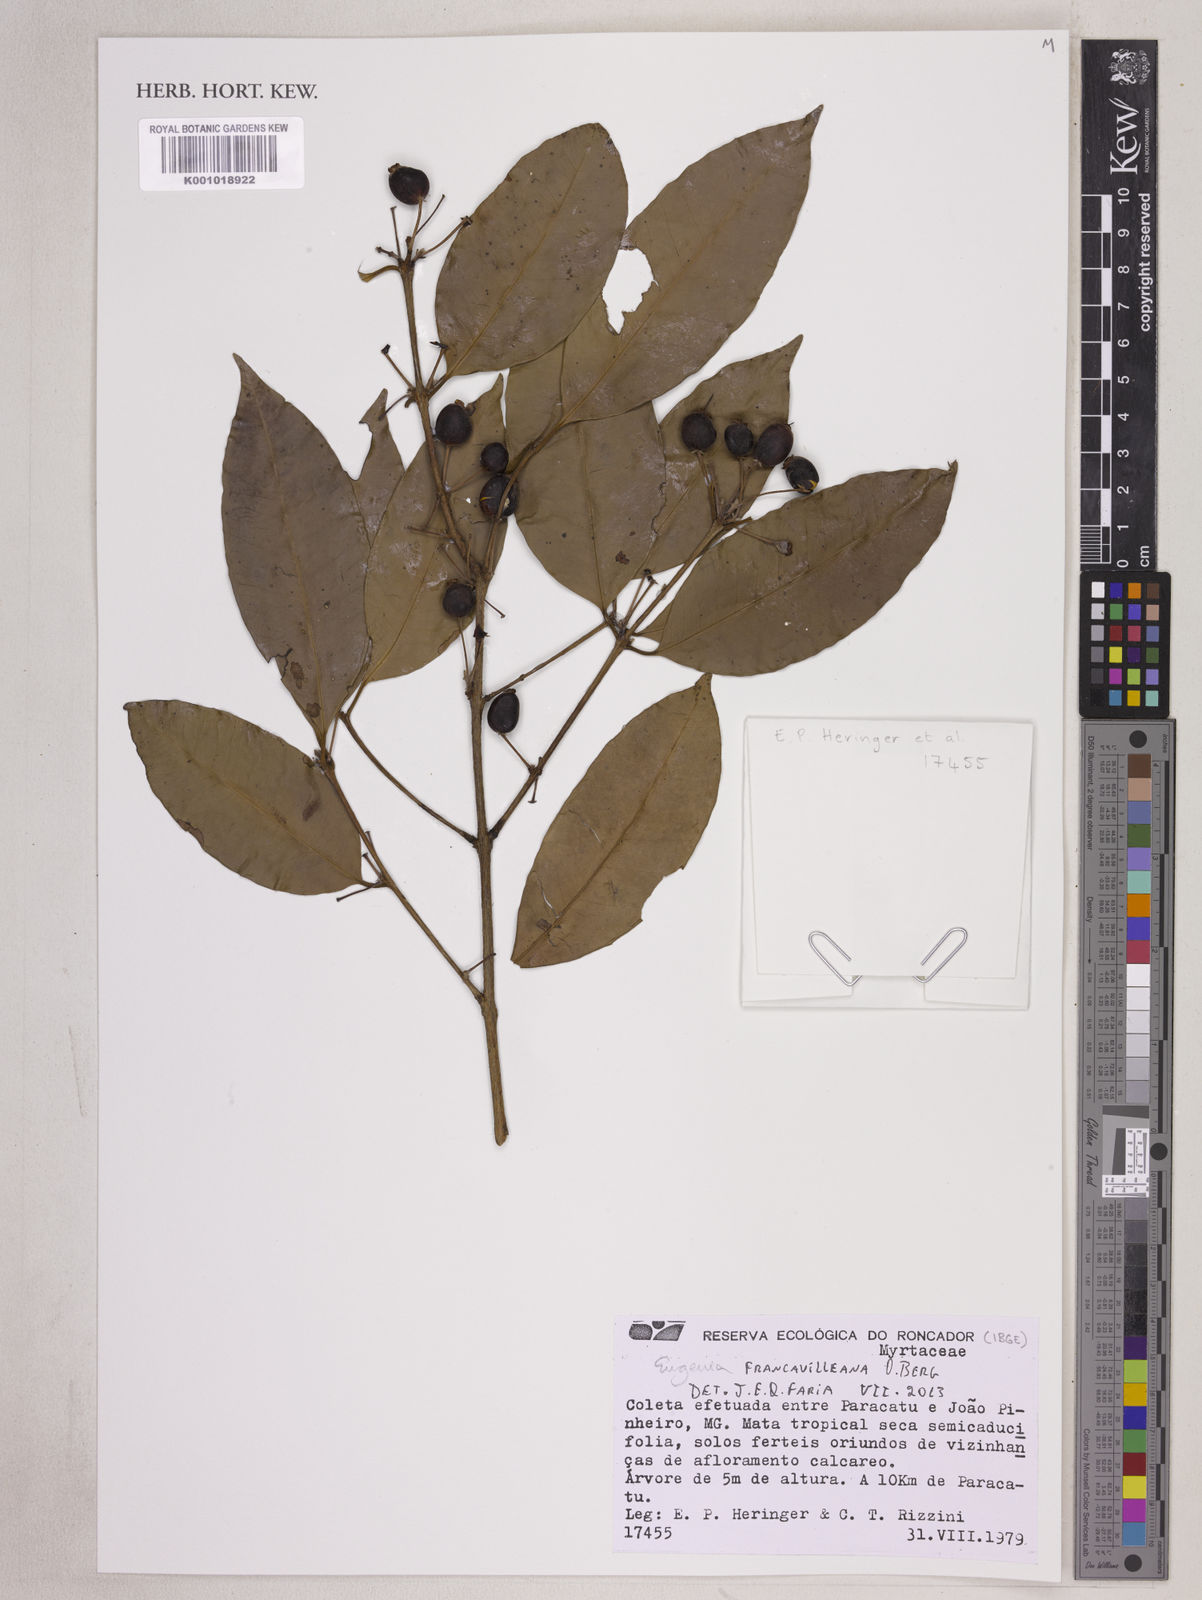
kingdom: Plantae
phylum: Tracheophyta
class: Magnoliopsida
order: Myrtales
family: Myrtaceae
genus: Eugenia
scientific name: Eugenia francavilleana
